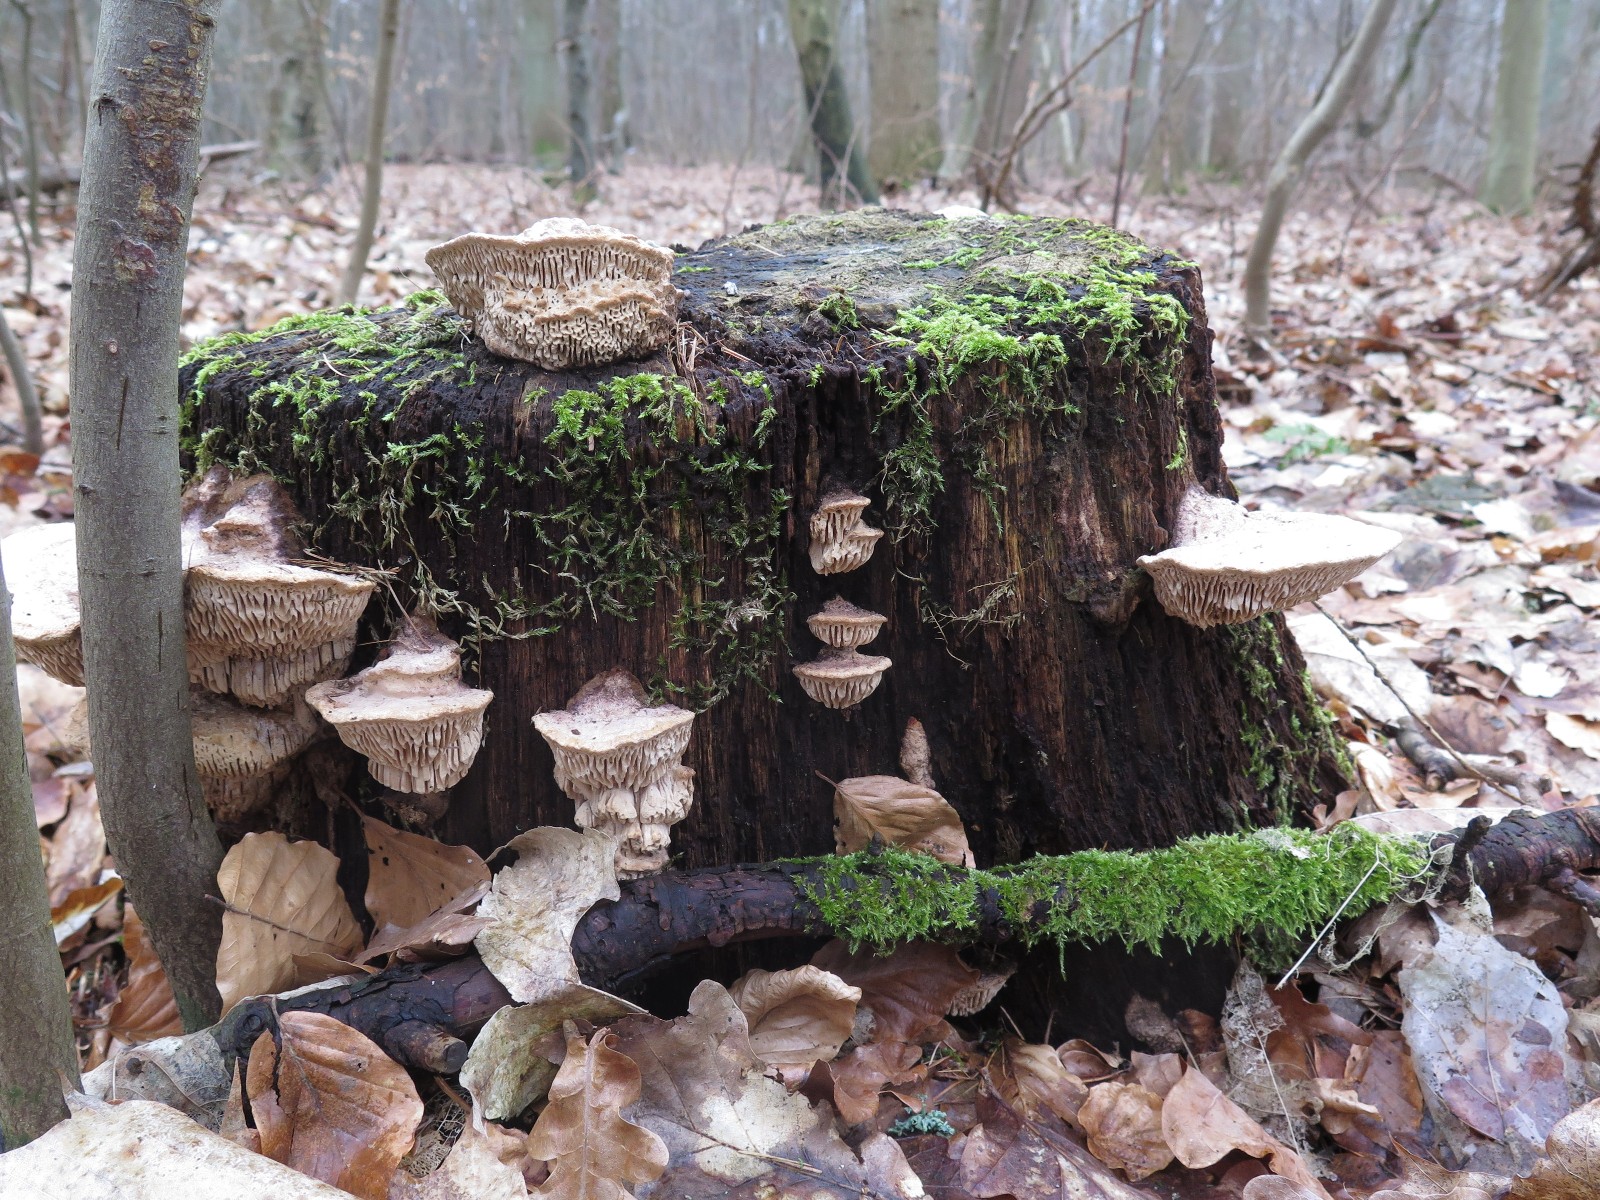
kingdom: Fungi
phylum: Basidiomycota
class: Agaricomycetes
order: Polyporales
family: Fomitopsidaceae
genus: Daedalea
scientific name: Daedalea quercina
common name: ege-labyrintsvamp
